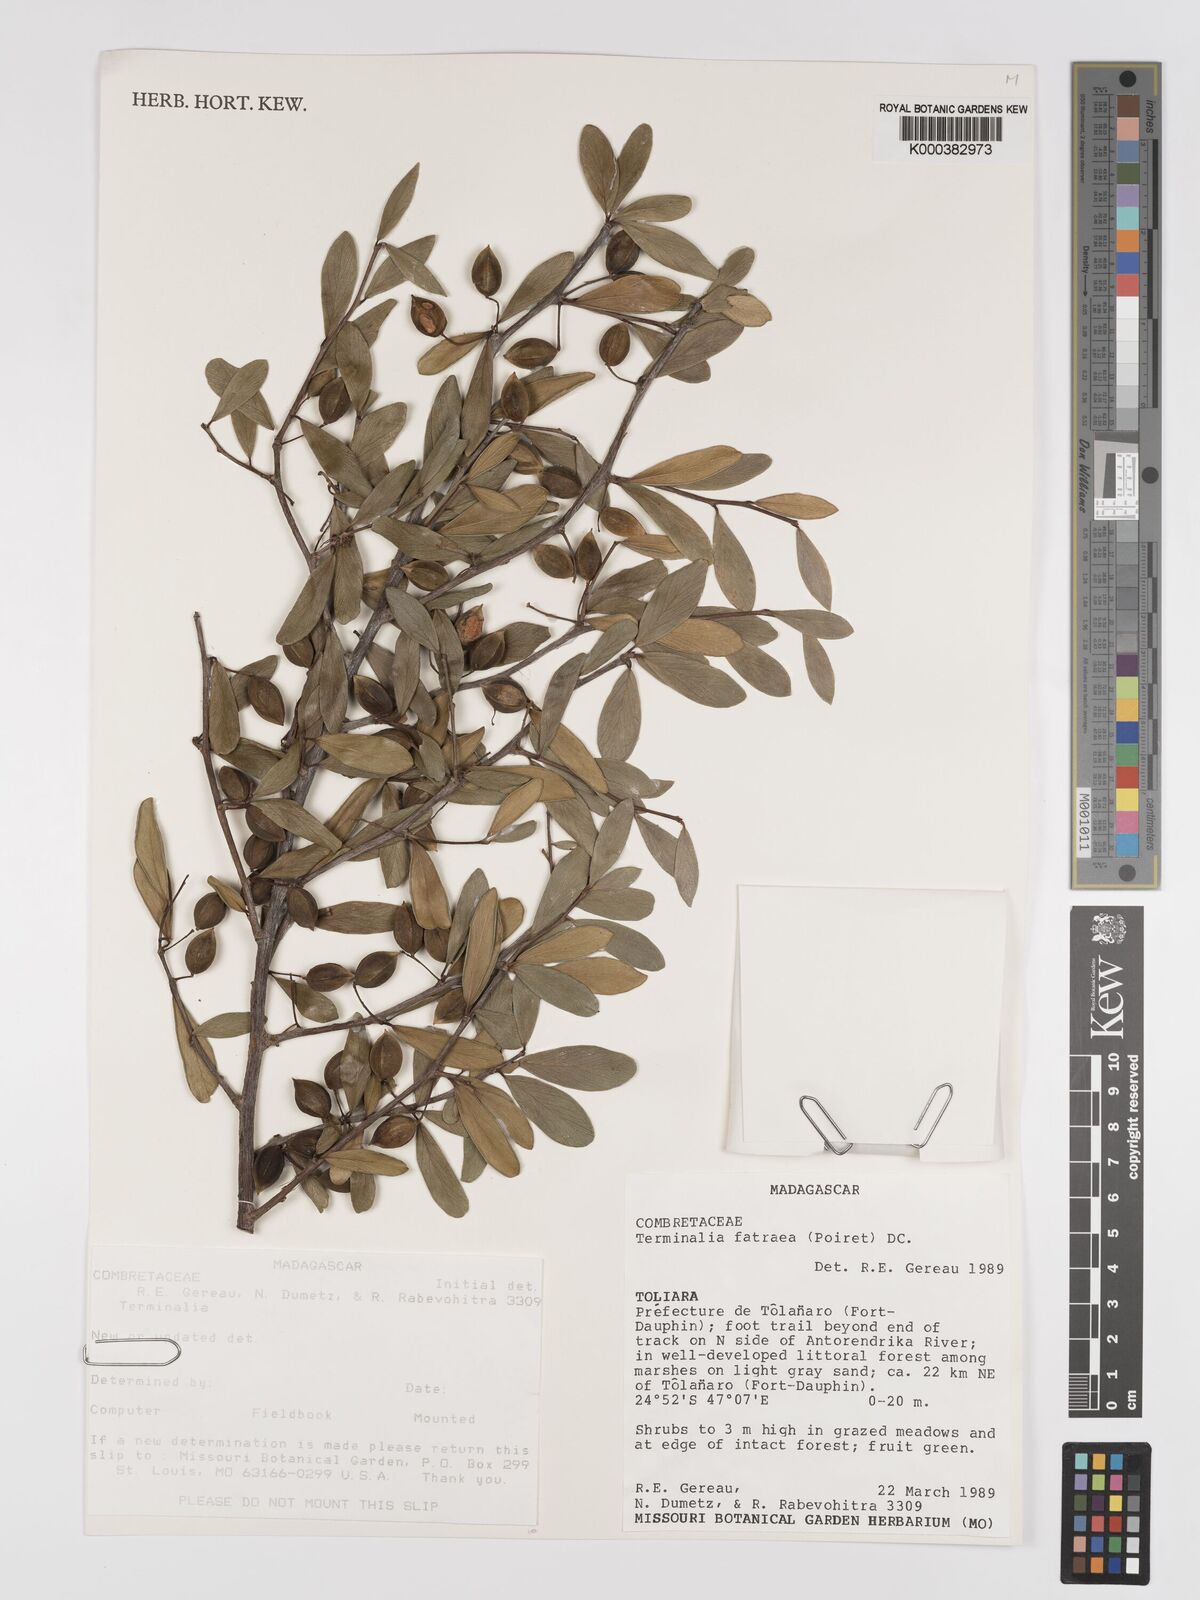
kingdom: Plantae
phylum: Tracheophyta
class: Magnoliopsida
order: Myrtales
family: Combretaceae
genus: Terminalia
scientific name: Terminalia fatraea
